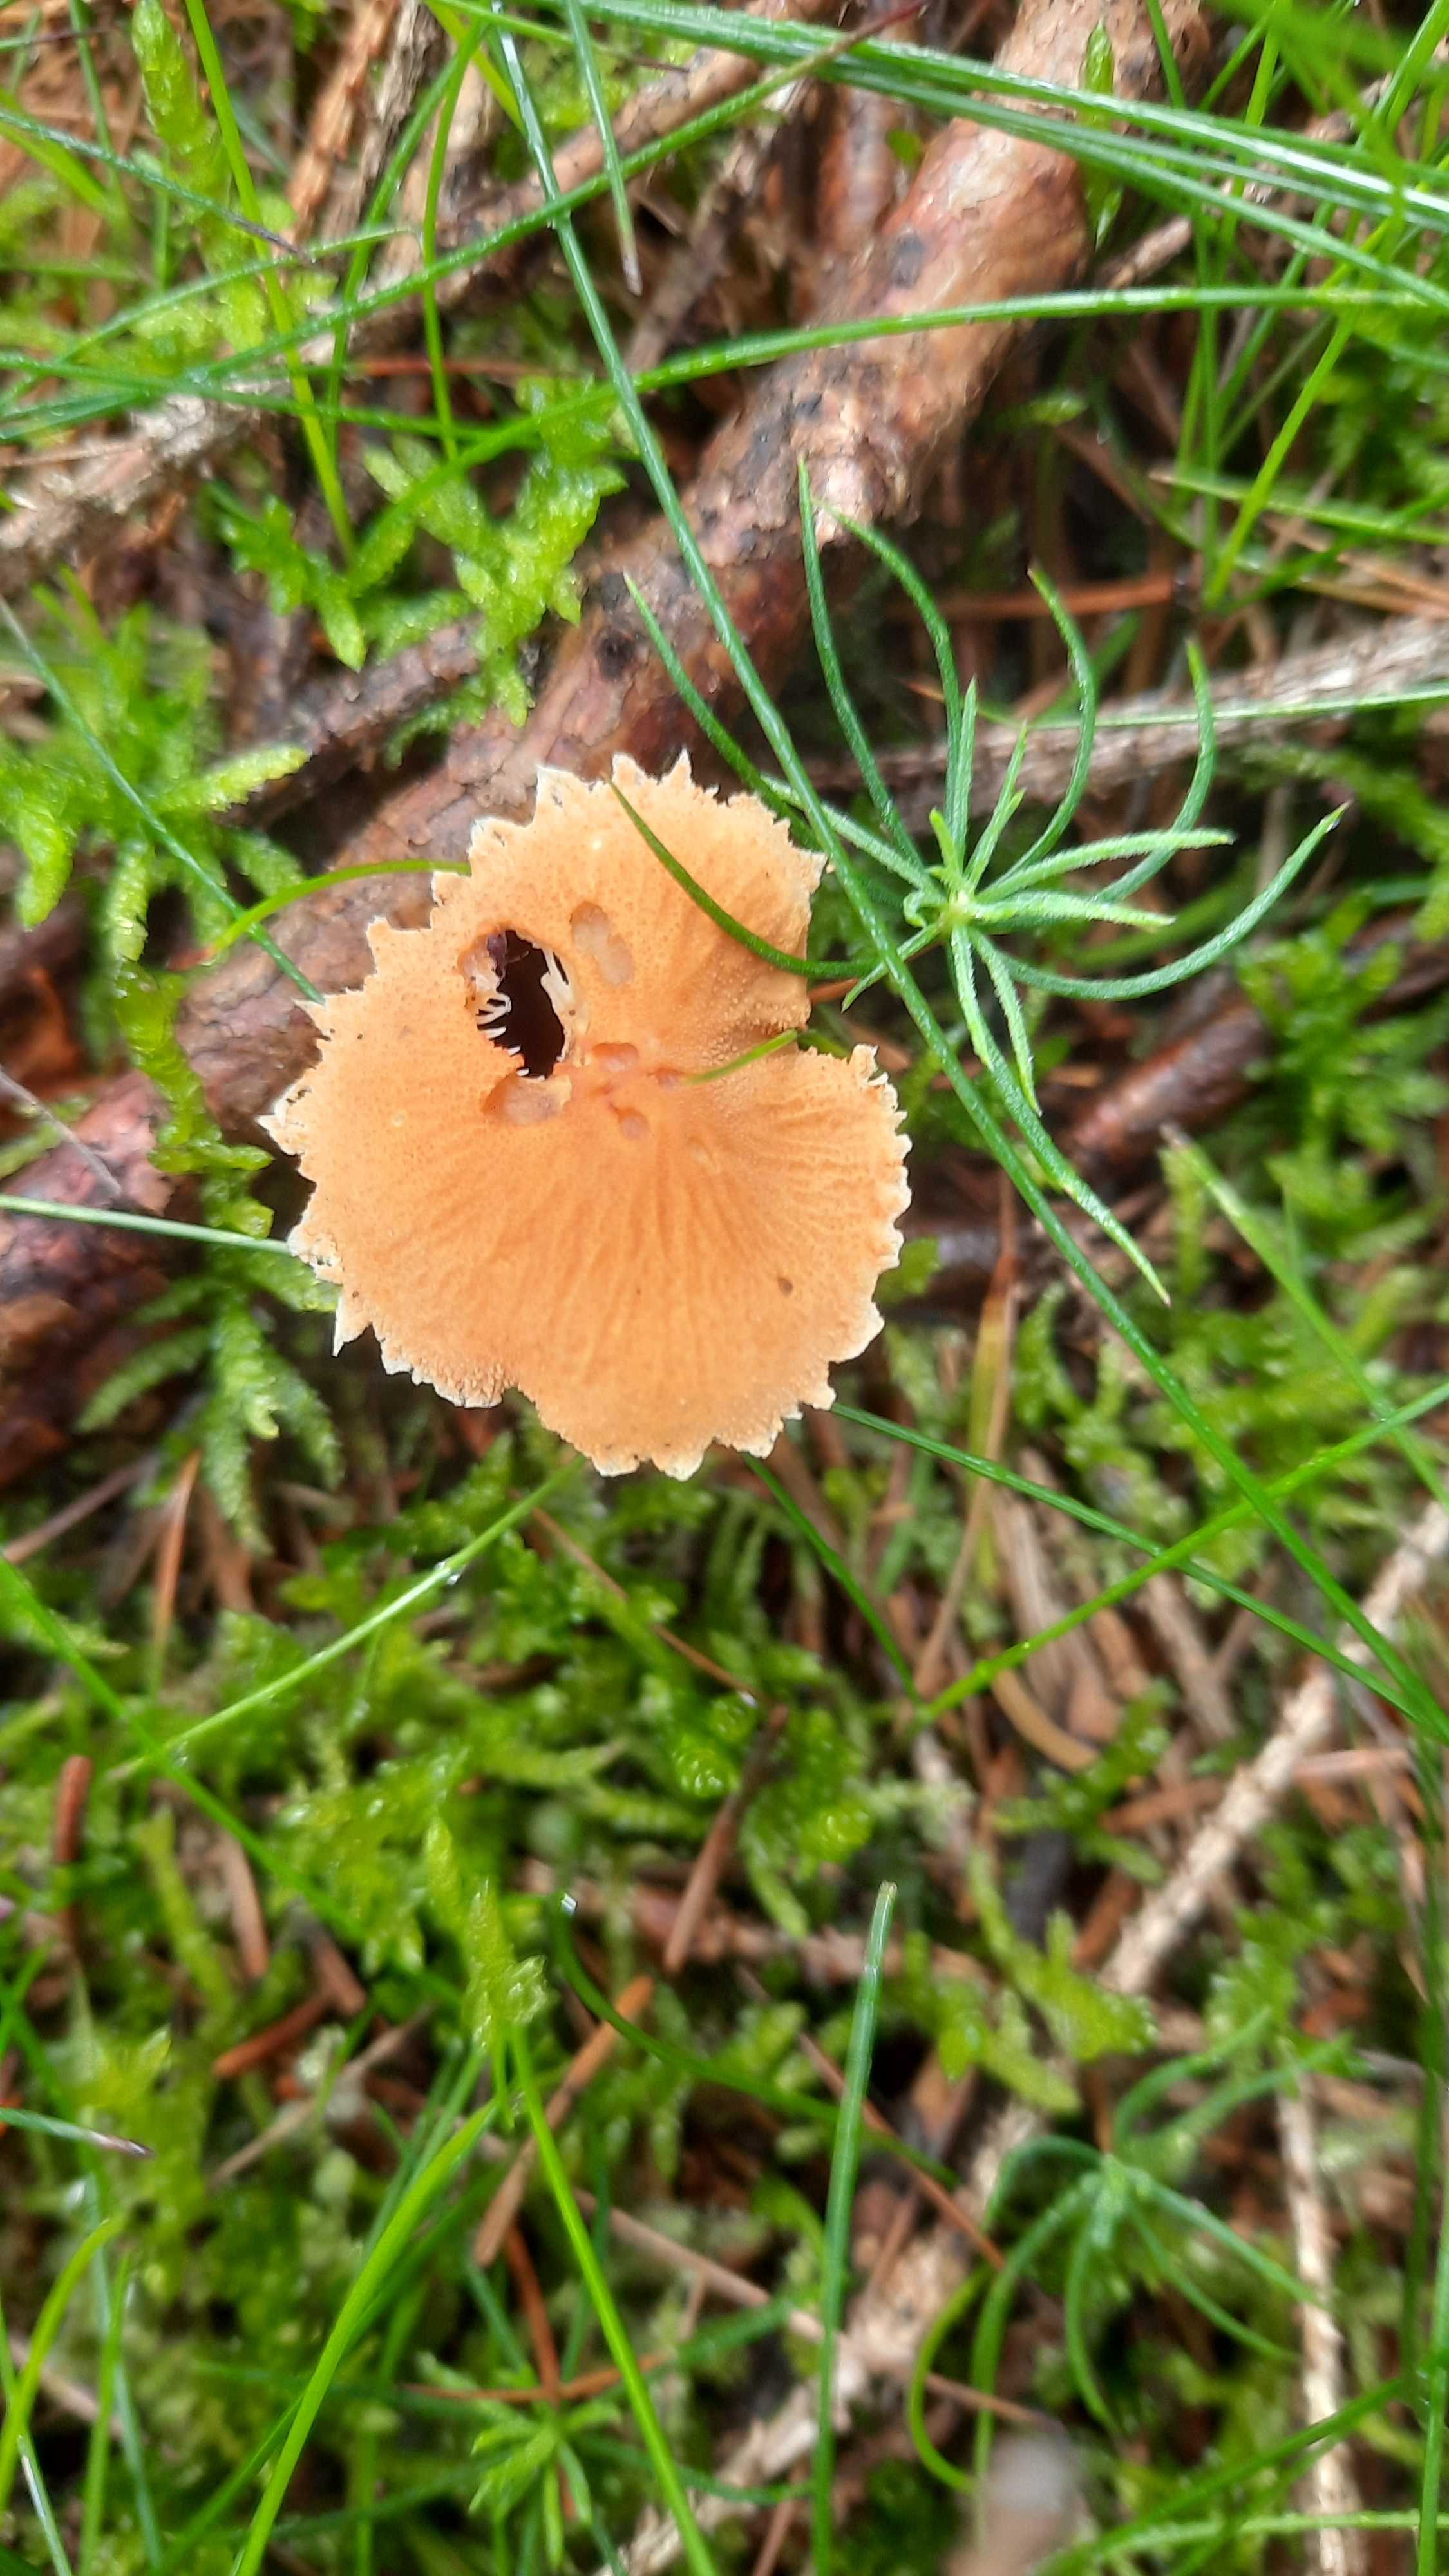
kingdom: Fungi
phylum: Basidiomycota
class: Agaricomycetes
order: Agaricales
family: Tricholomataceae
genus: Cystoderma
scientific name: Cystoderma amianthinum
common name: okkergul grynhat
